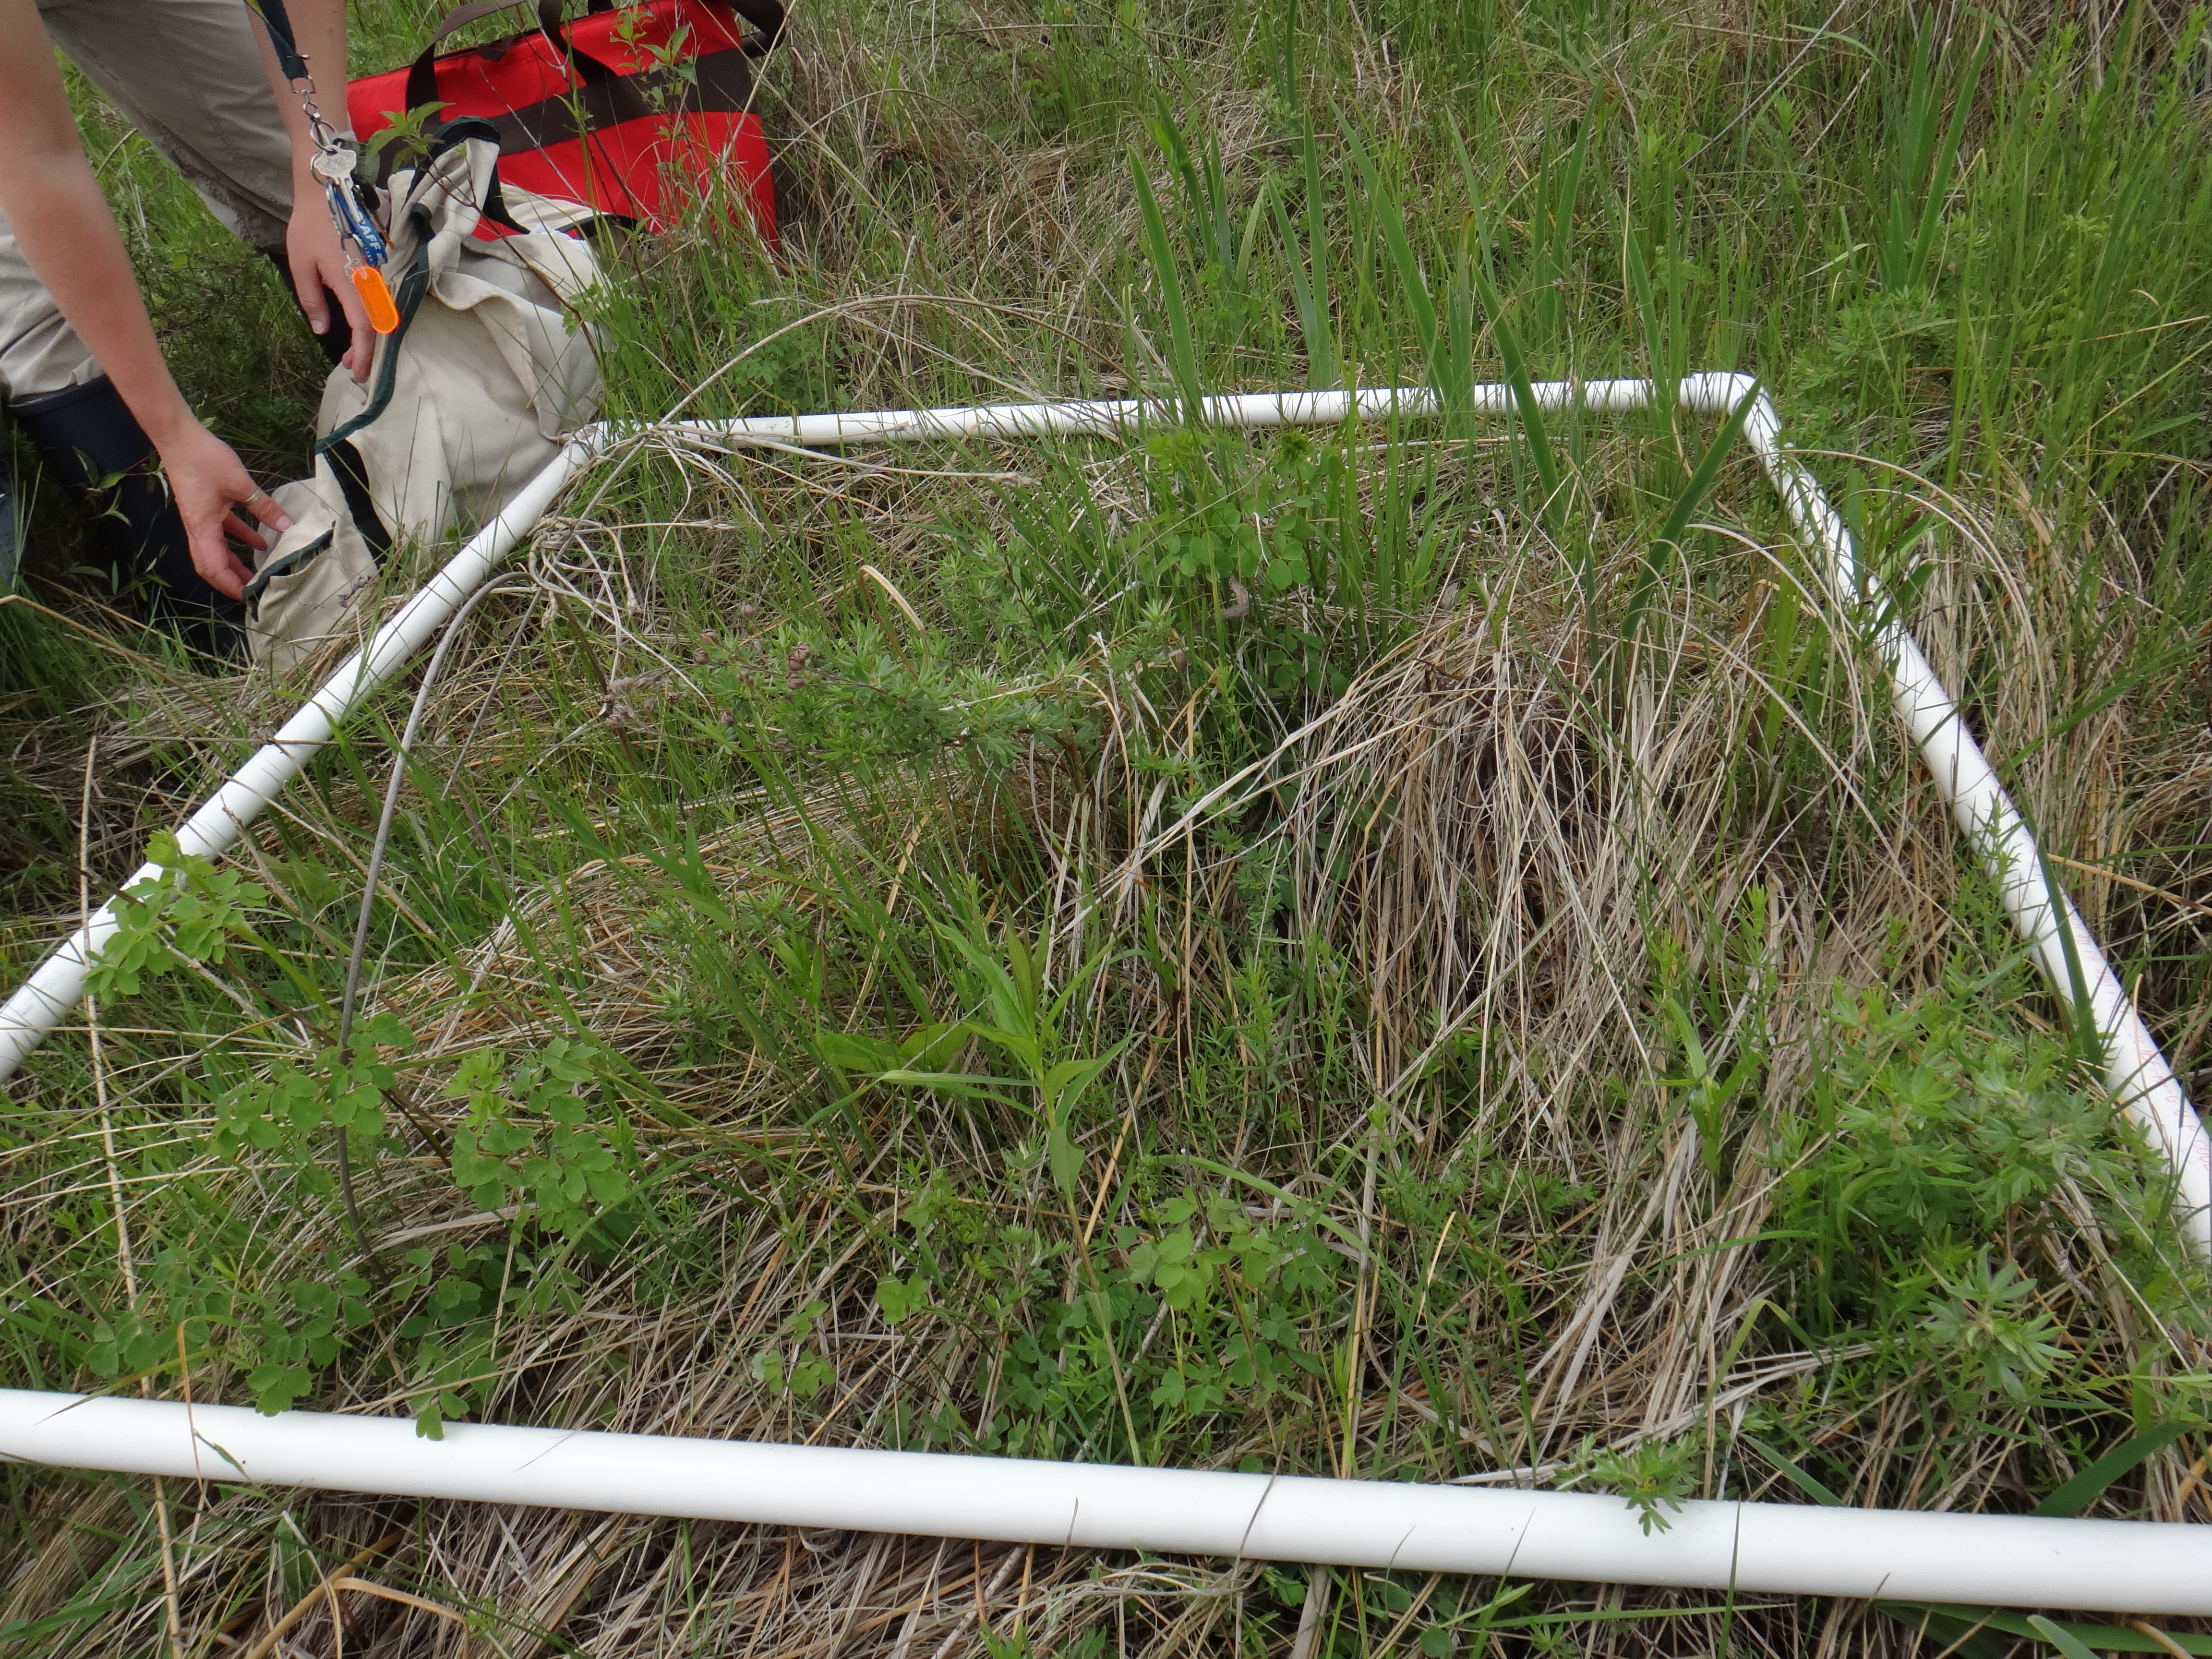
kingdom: Plantae
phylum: Tracheophyta
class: Magnoliopsida
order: Asterales
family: Asteraceae
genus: Solidago
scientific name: Solidago patula
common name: Rough-leaf goldenrod
